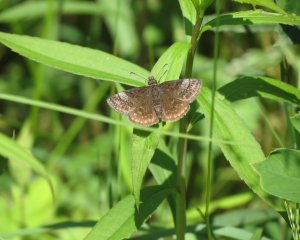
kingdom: Animalia
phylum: Arthropoda
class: Insecta
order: Lepidoptera
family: Hesperiidae
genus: Erynnis
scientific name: Erynnis icelus
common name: Dreamy Duskywing
